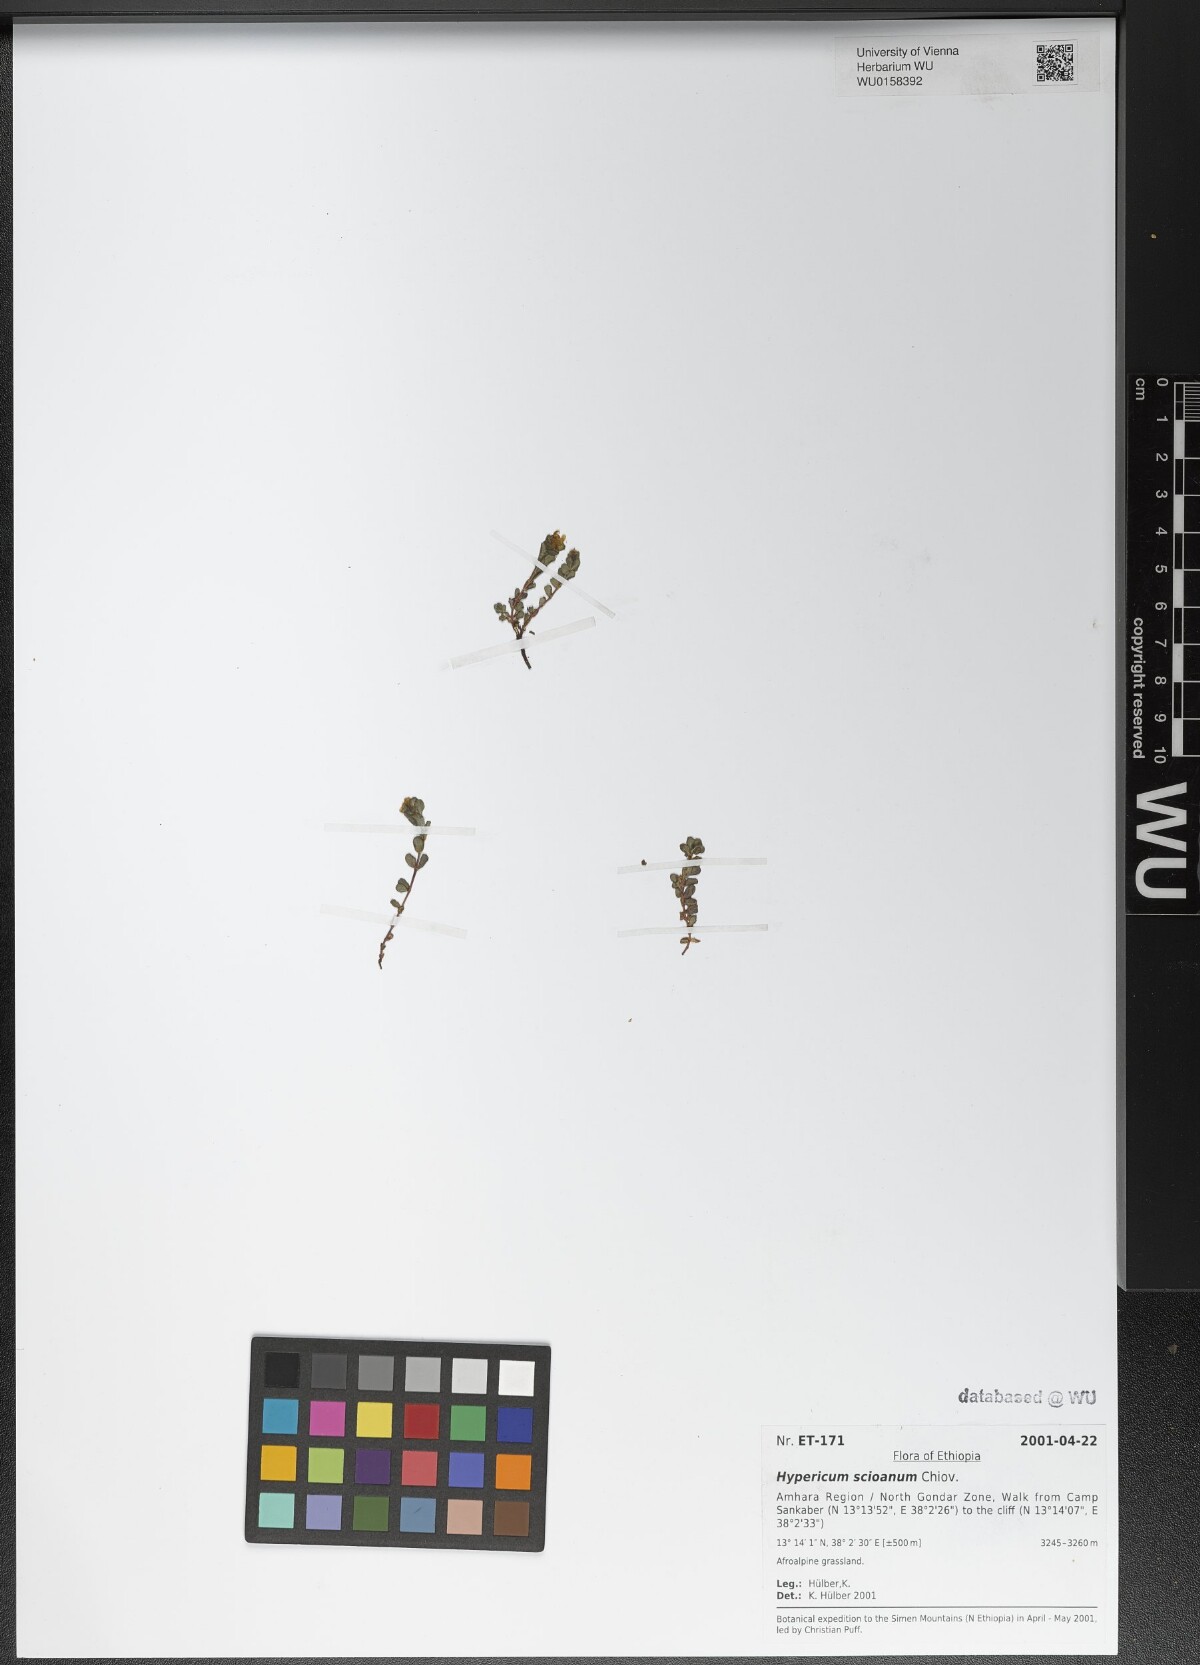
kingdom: Plantae
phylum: Tracheophyta
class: Magnoliopsida
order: Malpighiales
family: Hypericaceae
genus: Hypericum
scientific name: Hypericum scioanum
